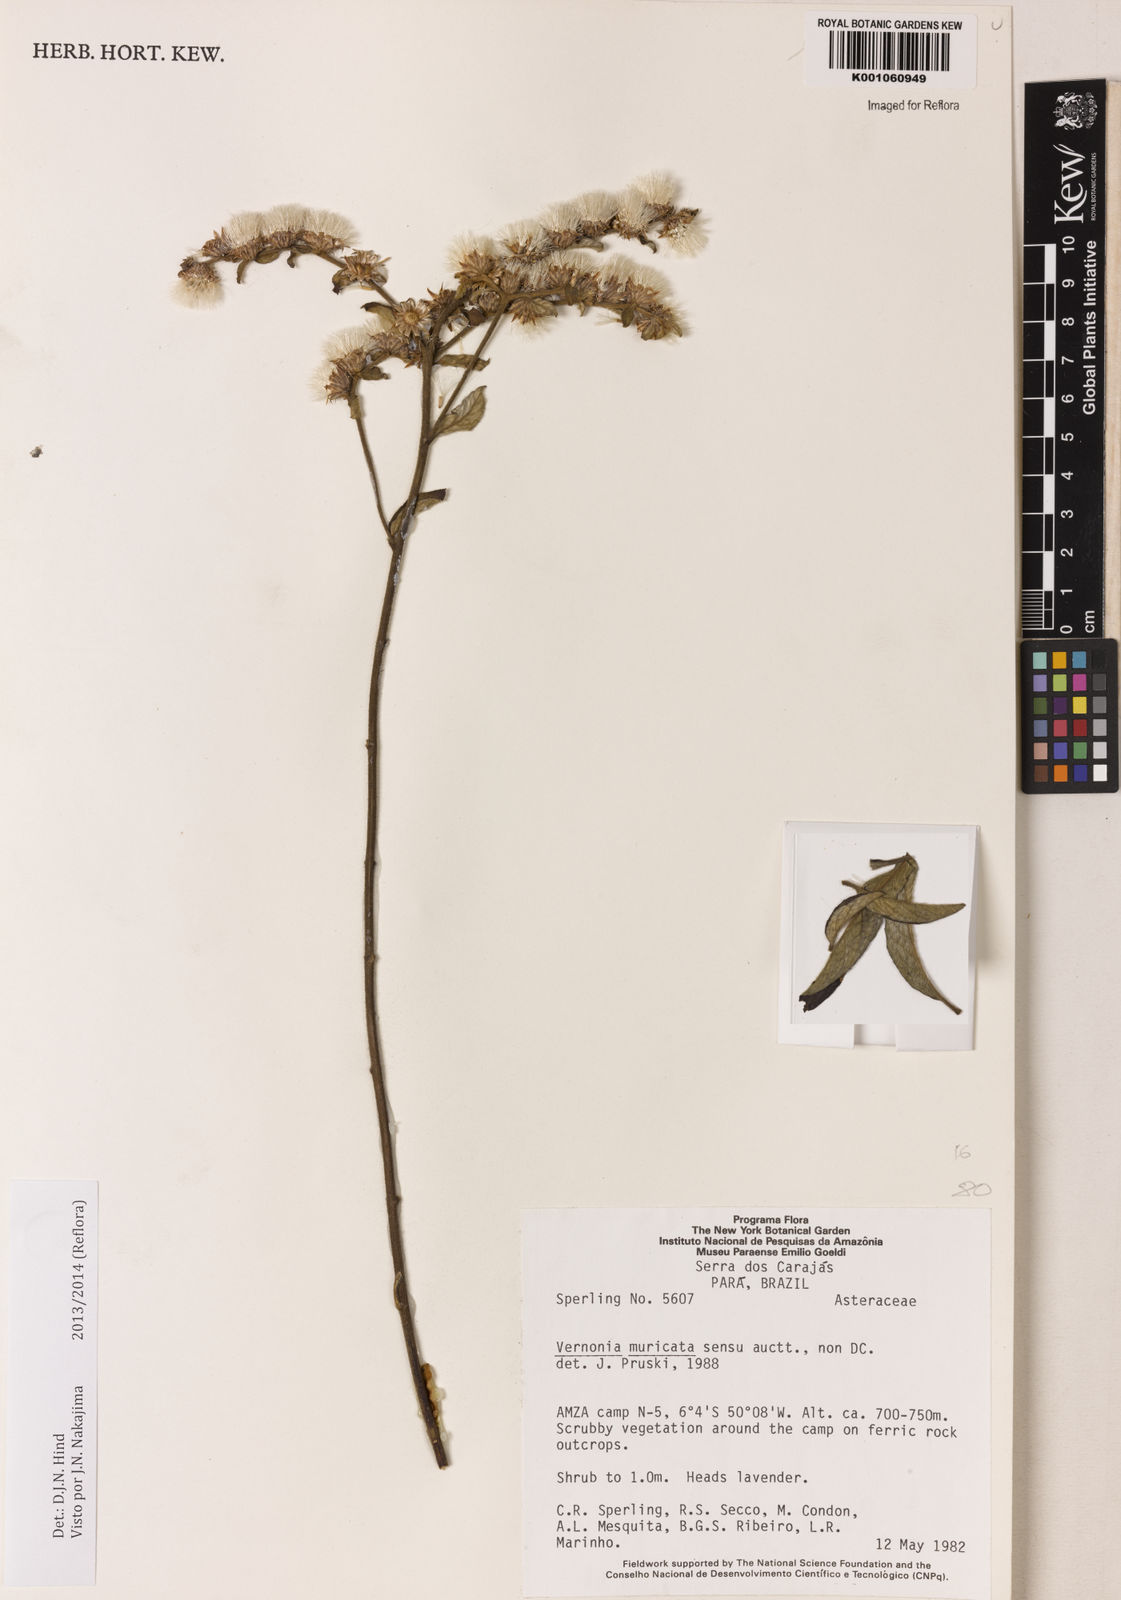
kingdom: Plantae
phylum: Tracheophyta
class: Magnoliopsida
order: Asterales
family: Asteraceae
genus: Lepidaploa
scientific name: Lepidaploa muricata
